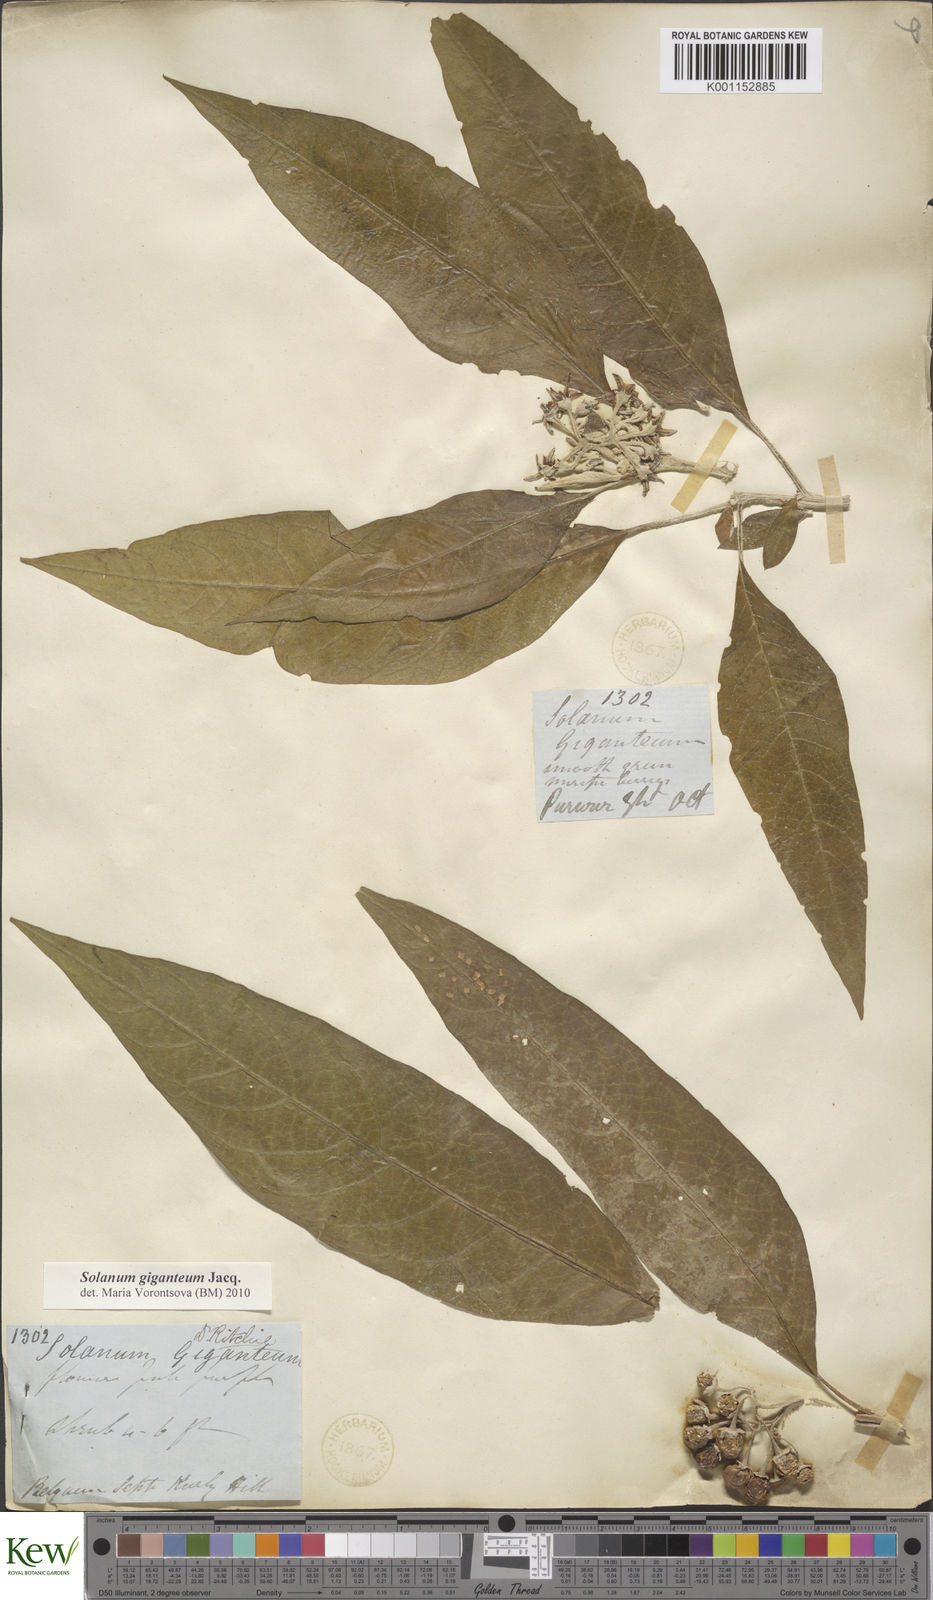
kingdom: Plantae
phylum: Tracheophyta
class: Magnoliopsida
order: Solanales
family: Solanaceae
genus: Solanum
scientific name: Solanum giganteum
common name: Healing-leaf-tree
